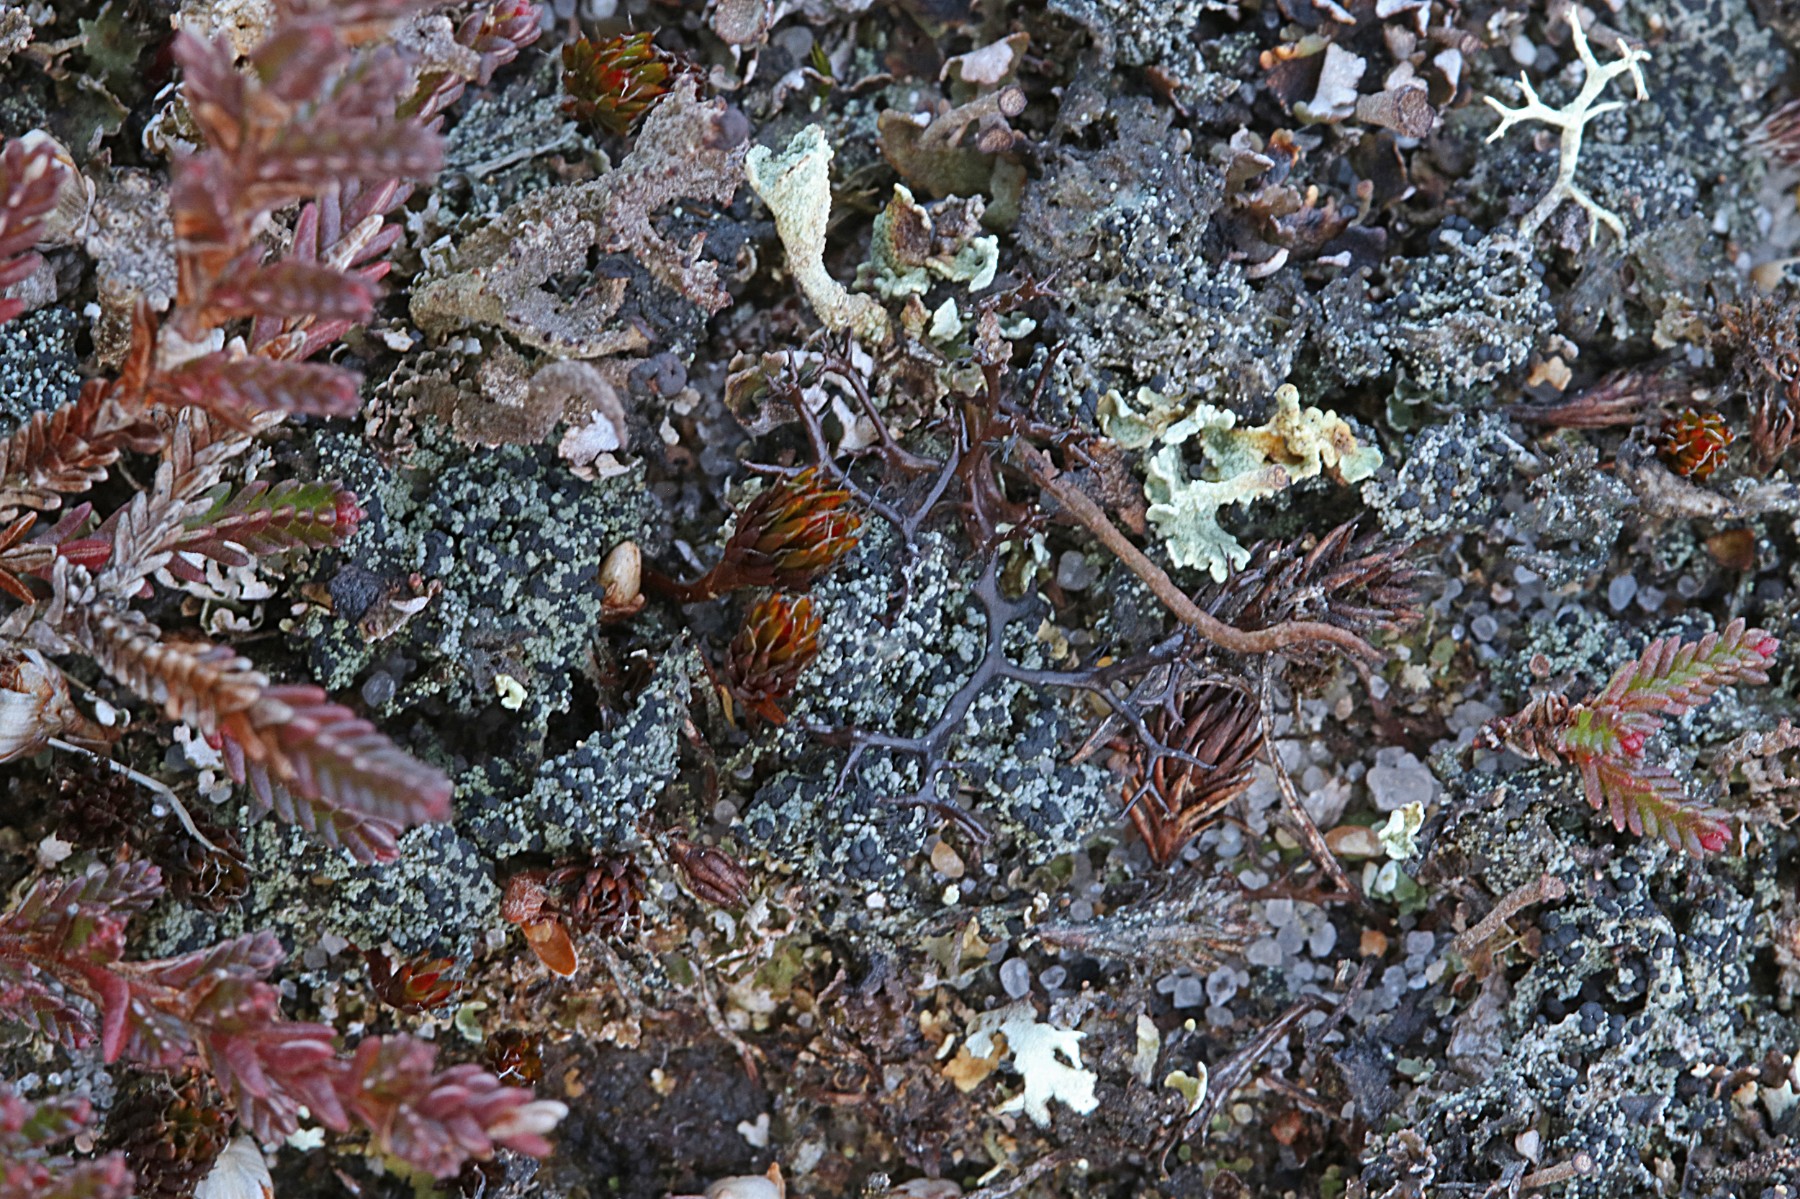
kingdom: Fungi
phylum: Ascomycota
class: Lecanoromycetes
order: Lecanorales
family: Byssolomataceae
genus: Micarea
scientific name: Micarea lignaria
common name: tørve-knaplav
